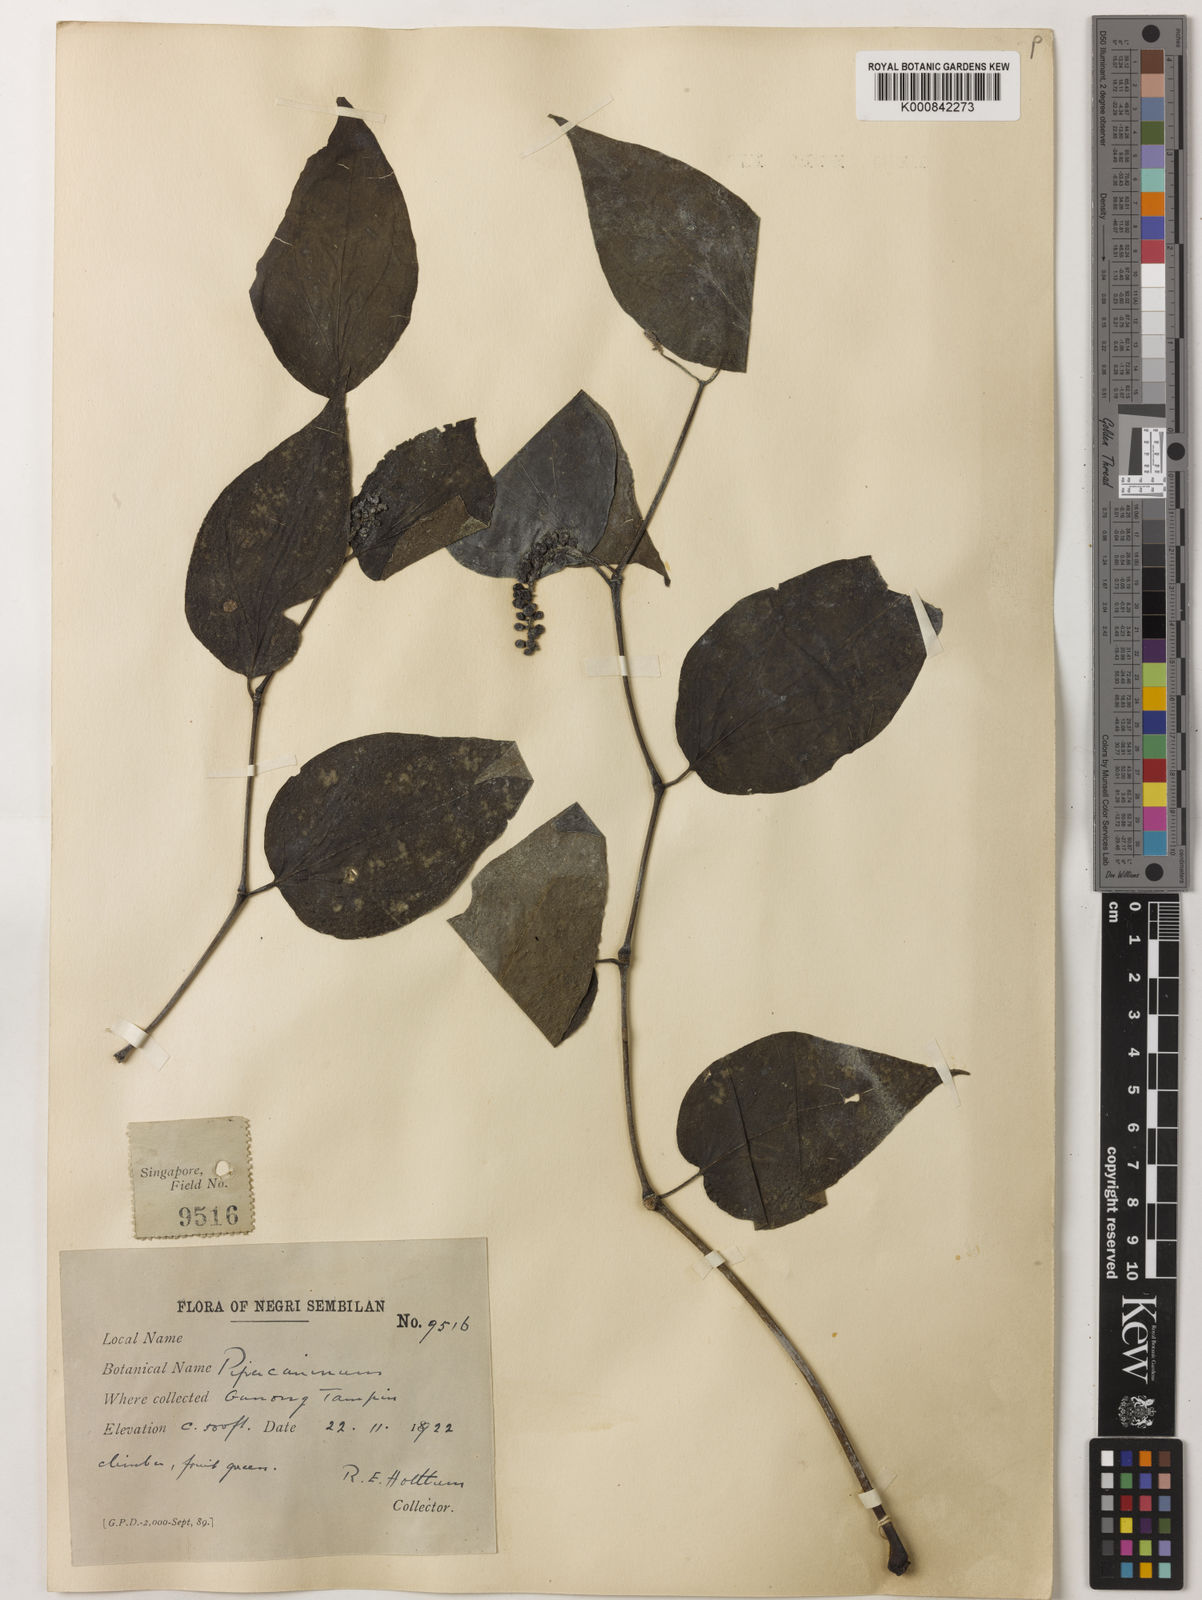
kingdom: Plantae
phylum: Tracheophyta
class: Magnoliopsida
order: Piperales
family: Piperaceae
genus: Piper
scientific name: Piper lanatum
